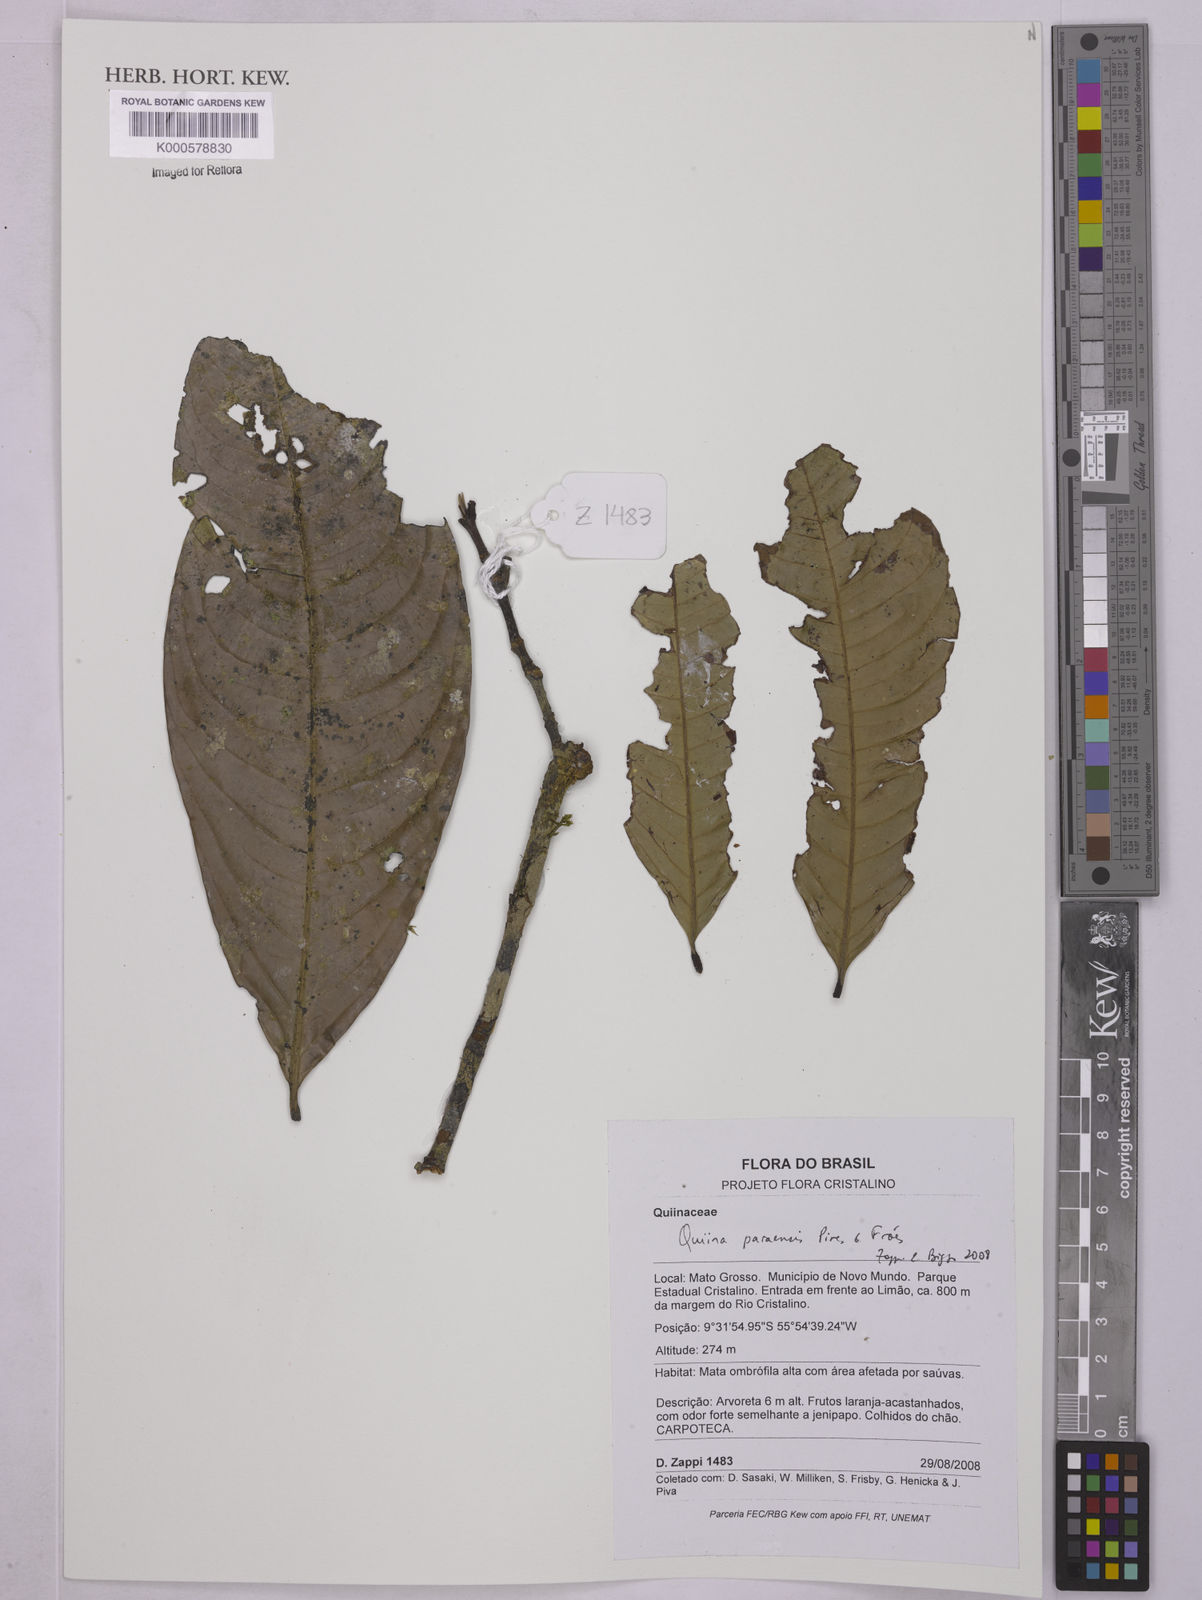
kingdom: Plantae
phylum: Tracheophyta
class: Magnoliopsida
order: Malpighiales
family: Quiinaceae
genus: Quiina
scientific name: Quiina
